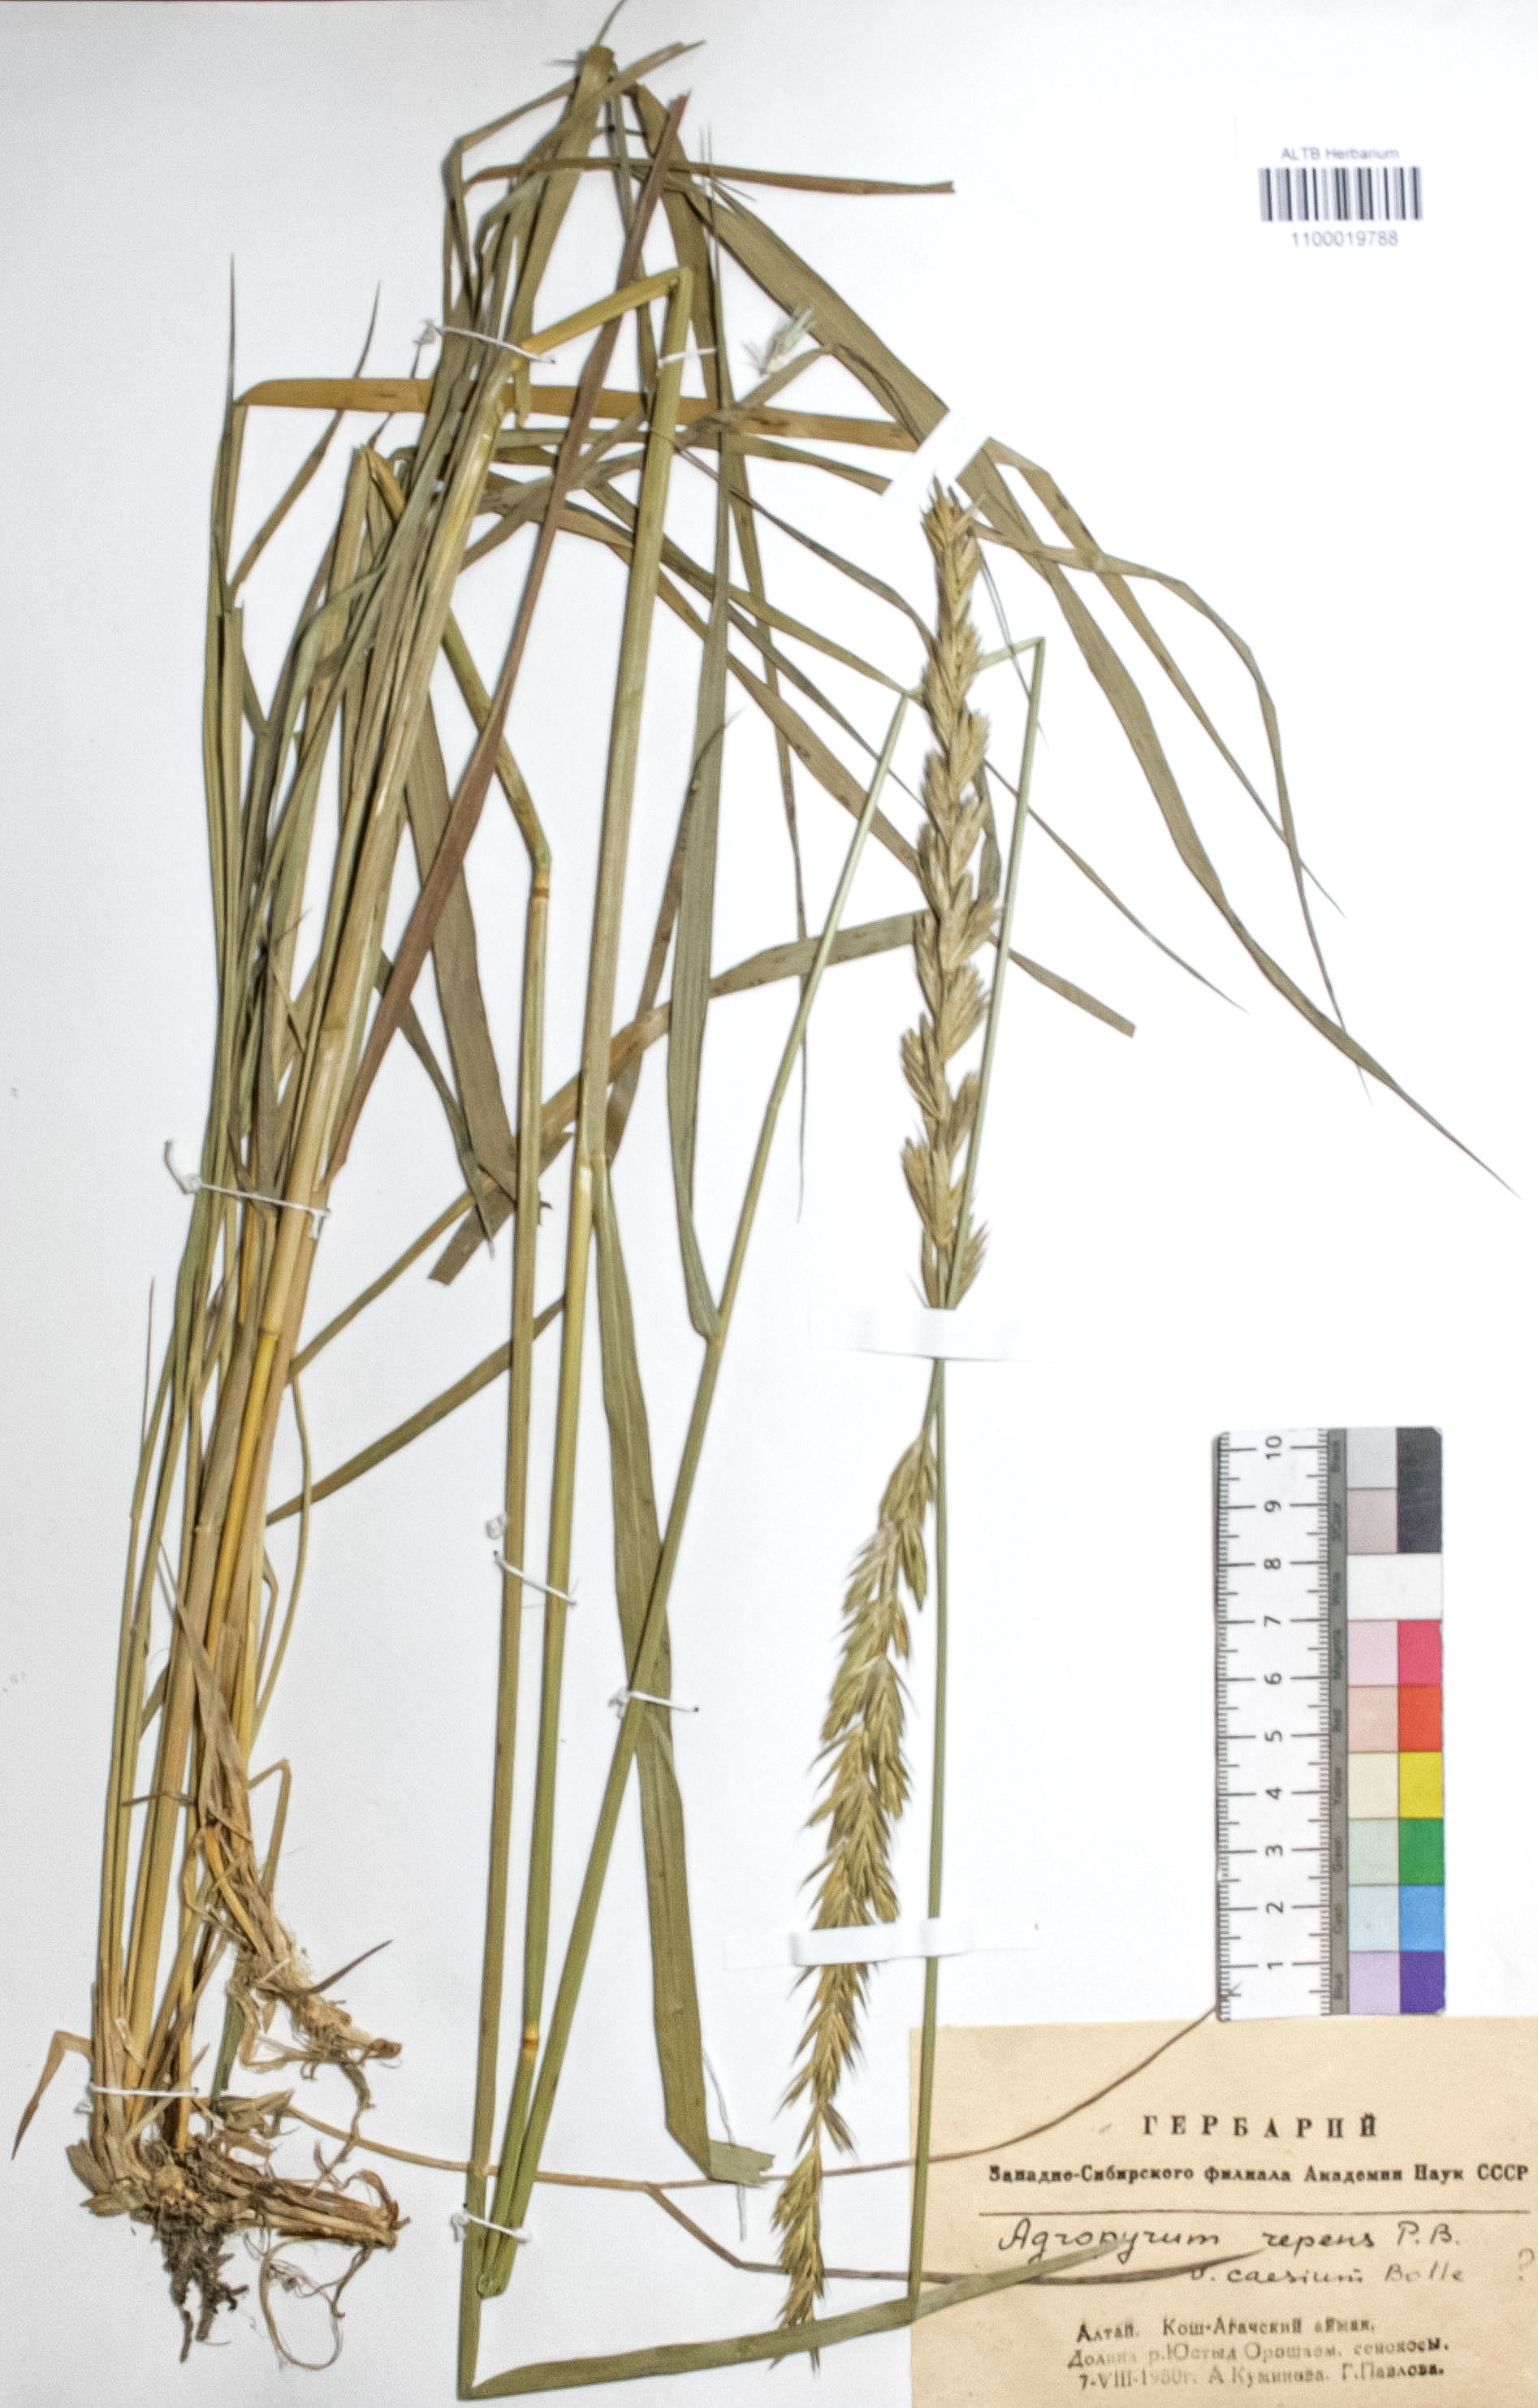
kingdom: Plantae
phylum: Tracheophyta
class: Liliopsida
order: Poales
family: Poaceae
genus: Elymus
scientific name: Elymus repens
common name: Quackgrass
